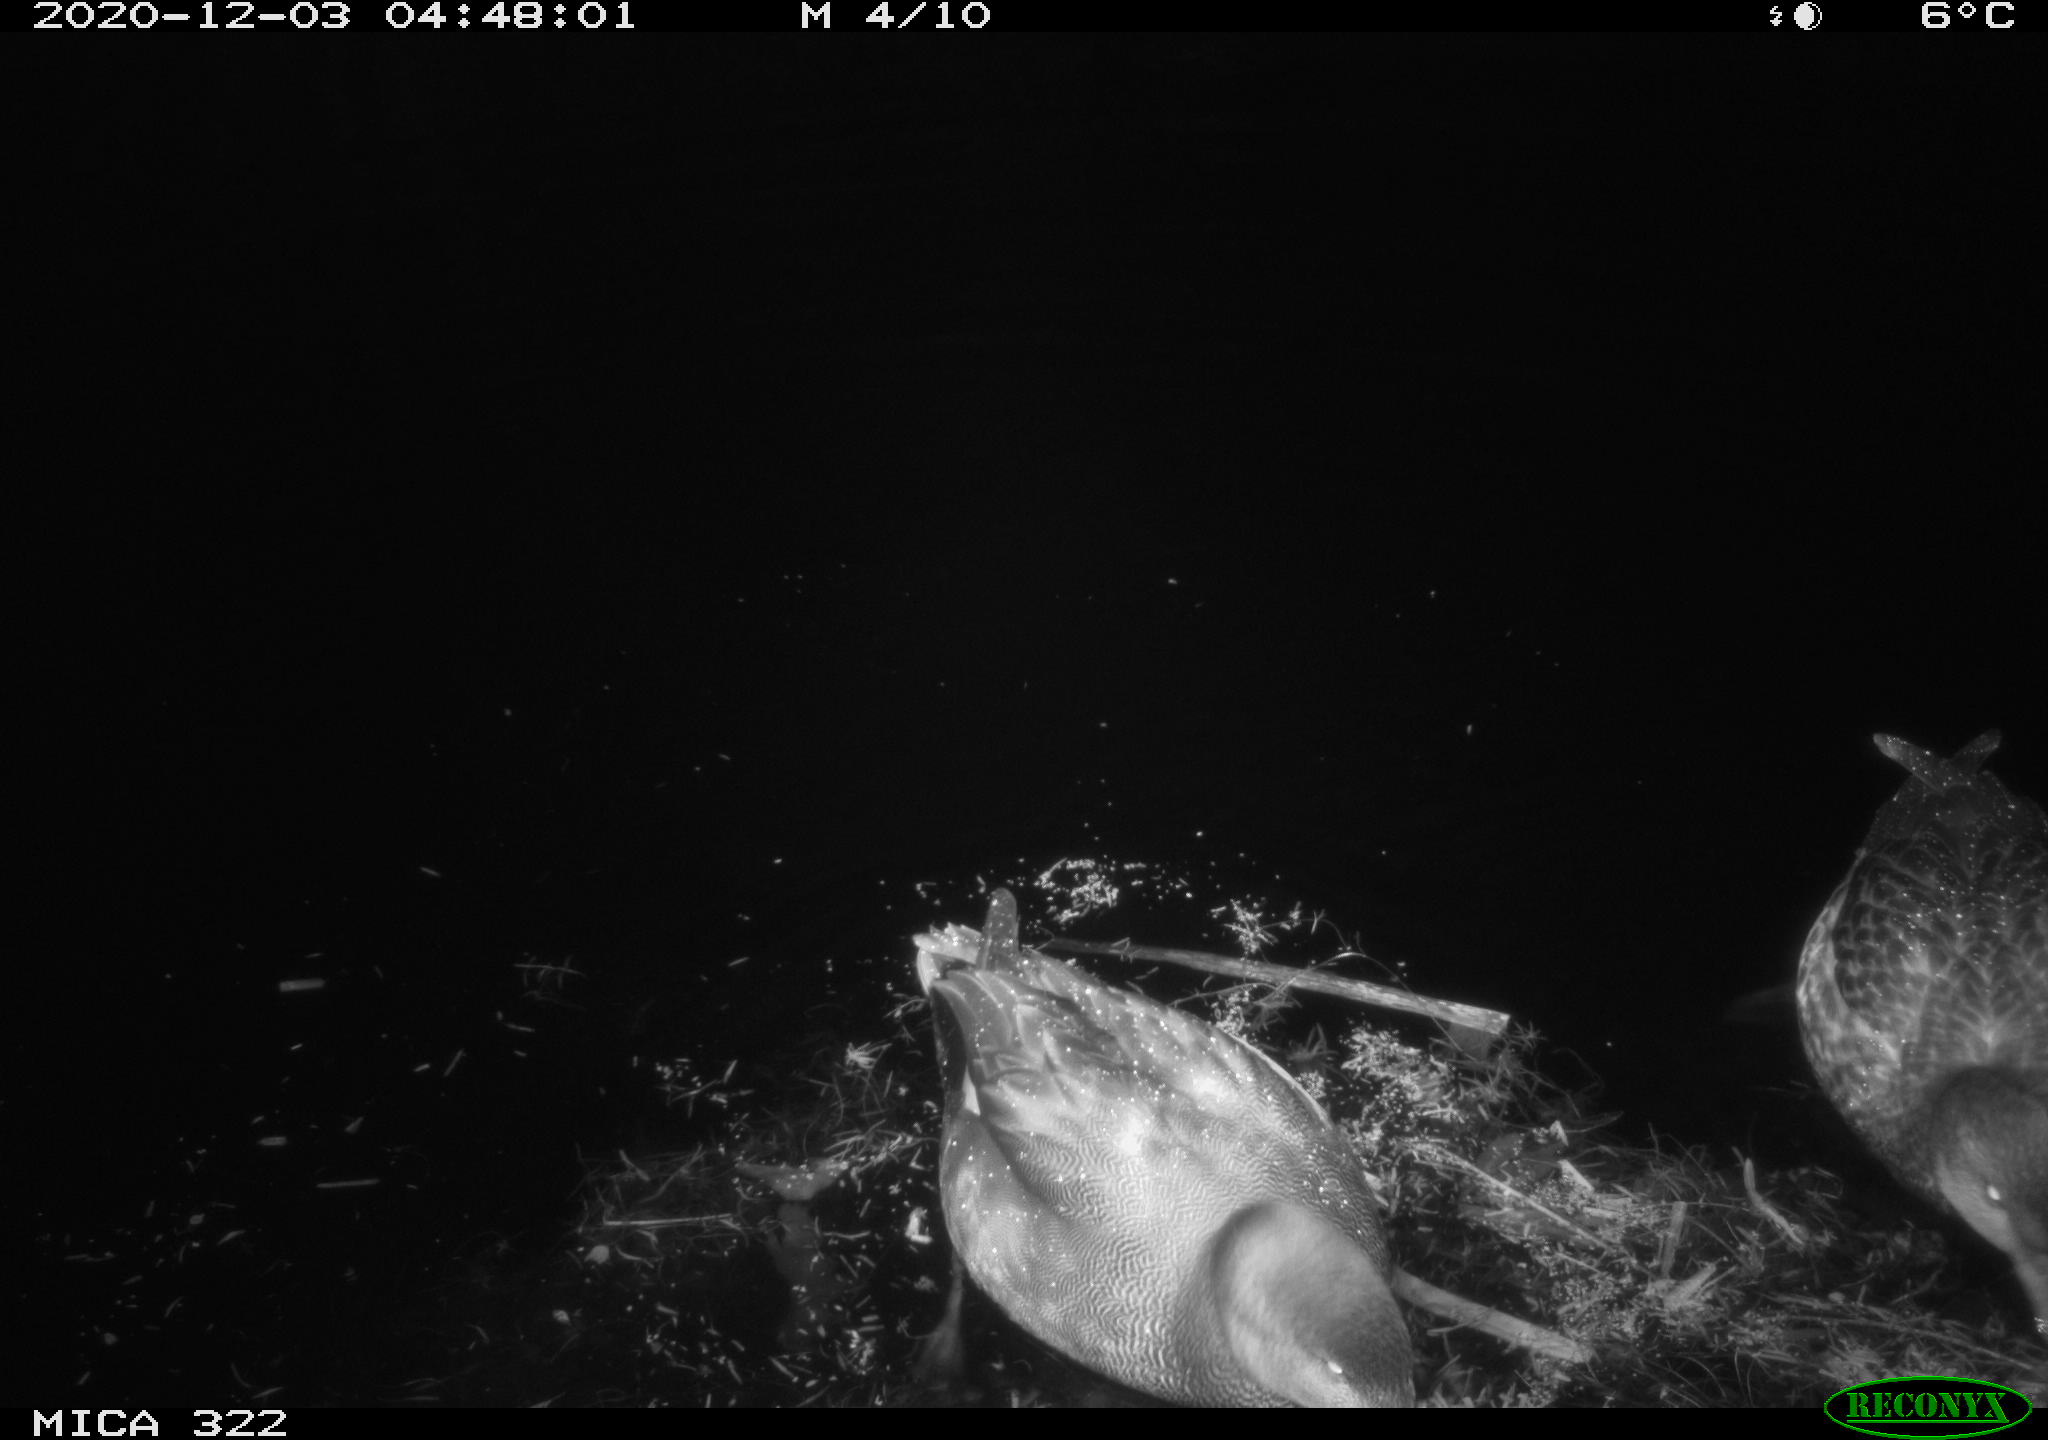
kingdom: Animalia
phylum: Chordata
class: Aves
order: Anseriformes
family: Anatidae
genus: Anas
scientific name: Anas platyrhynchos
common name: Mallard
